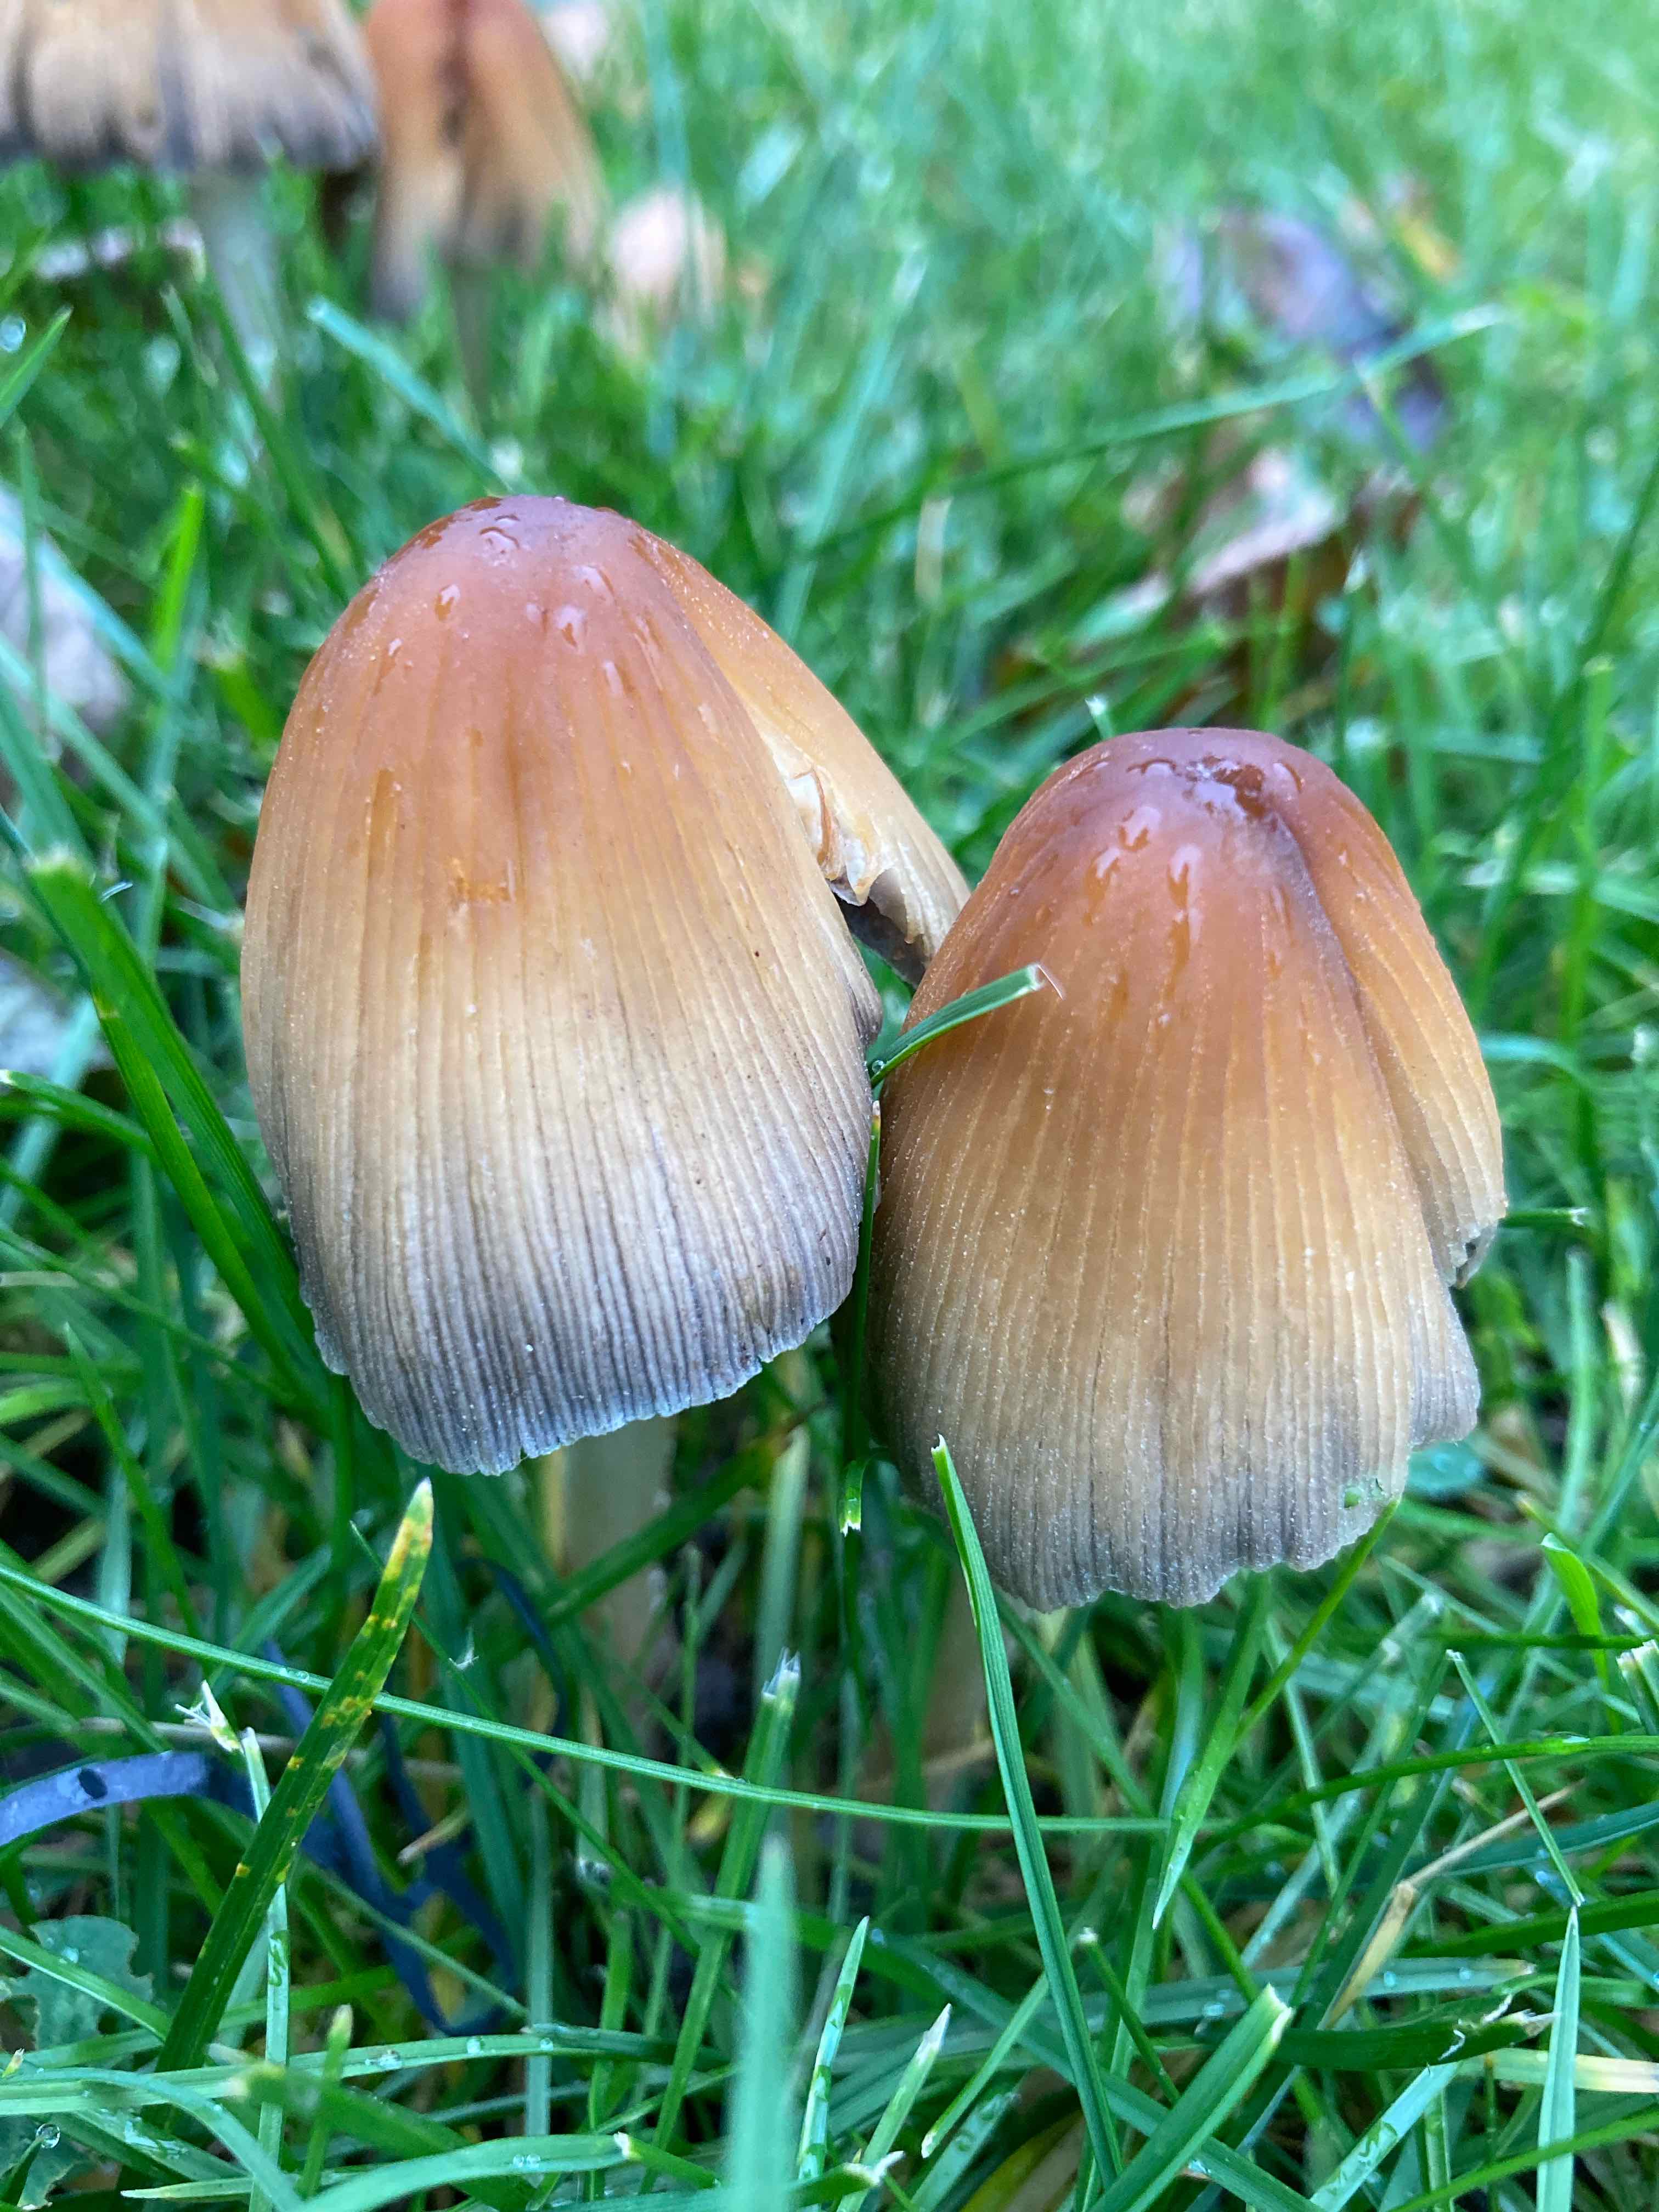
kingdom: Fungi
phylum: Basidiomycota
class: Agaricomycetes
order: Agaricales
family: Psathyrellaceae
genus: Coprinellus
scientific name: Coprinellus micaceus
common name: glimmer-blækhat
